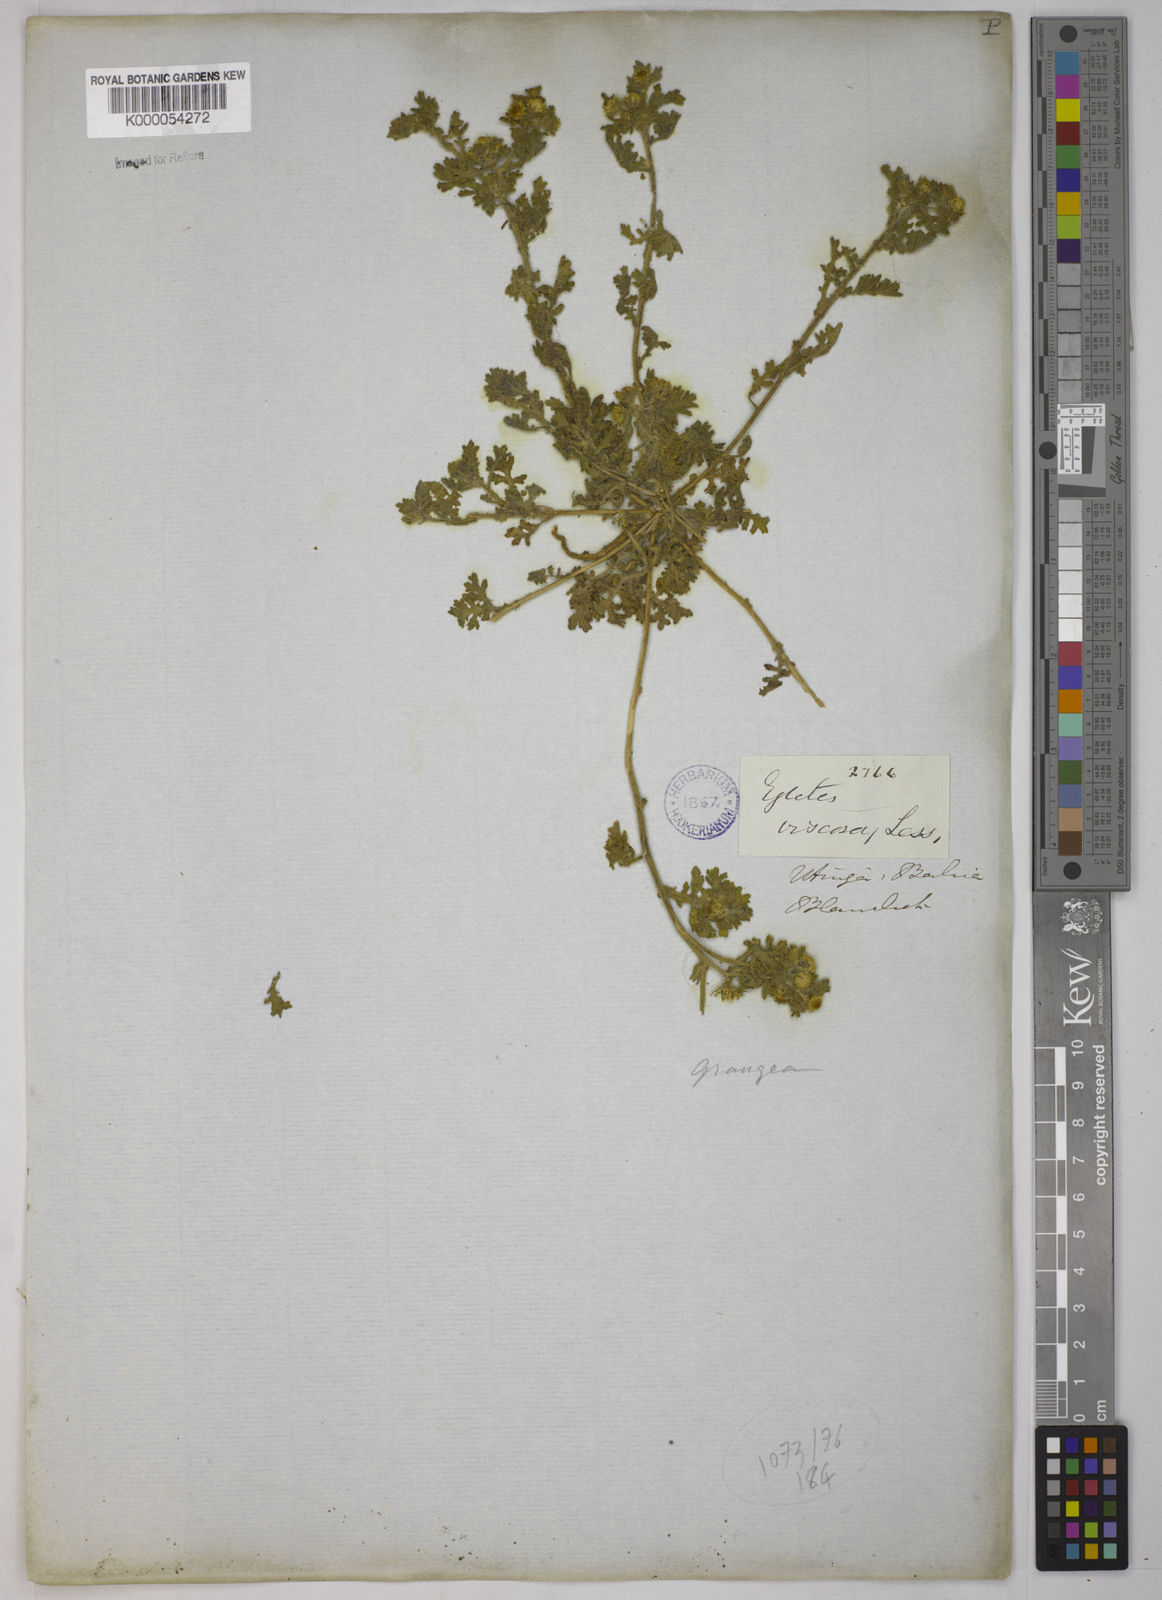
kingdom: Plantae
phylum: Tracheophyta
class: Magnoliopsida
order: Asterales
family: Asteraceae
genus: Egletes
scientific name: Egletes viscosa
